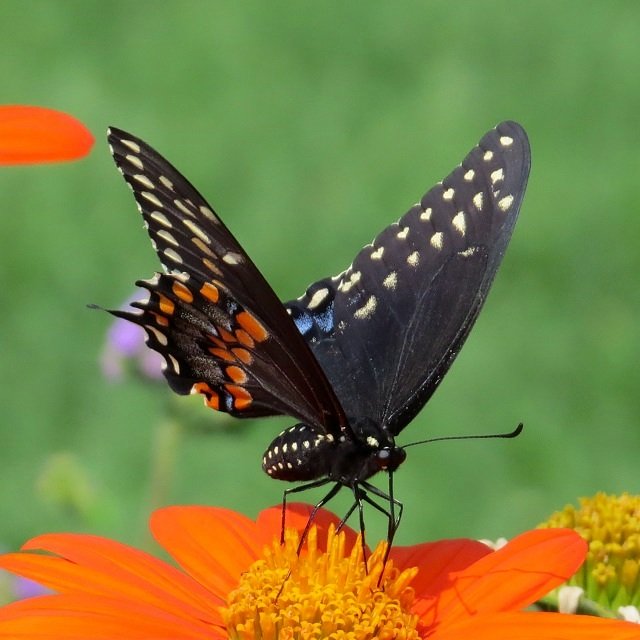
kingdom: Animalia
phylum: Arthropoda
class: Insecta
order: Lepidoptera
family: Papilionidae
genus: Papilio
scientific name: Papilio polyxenes
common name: Black Swallowtail
